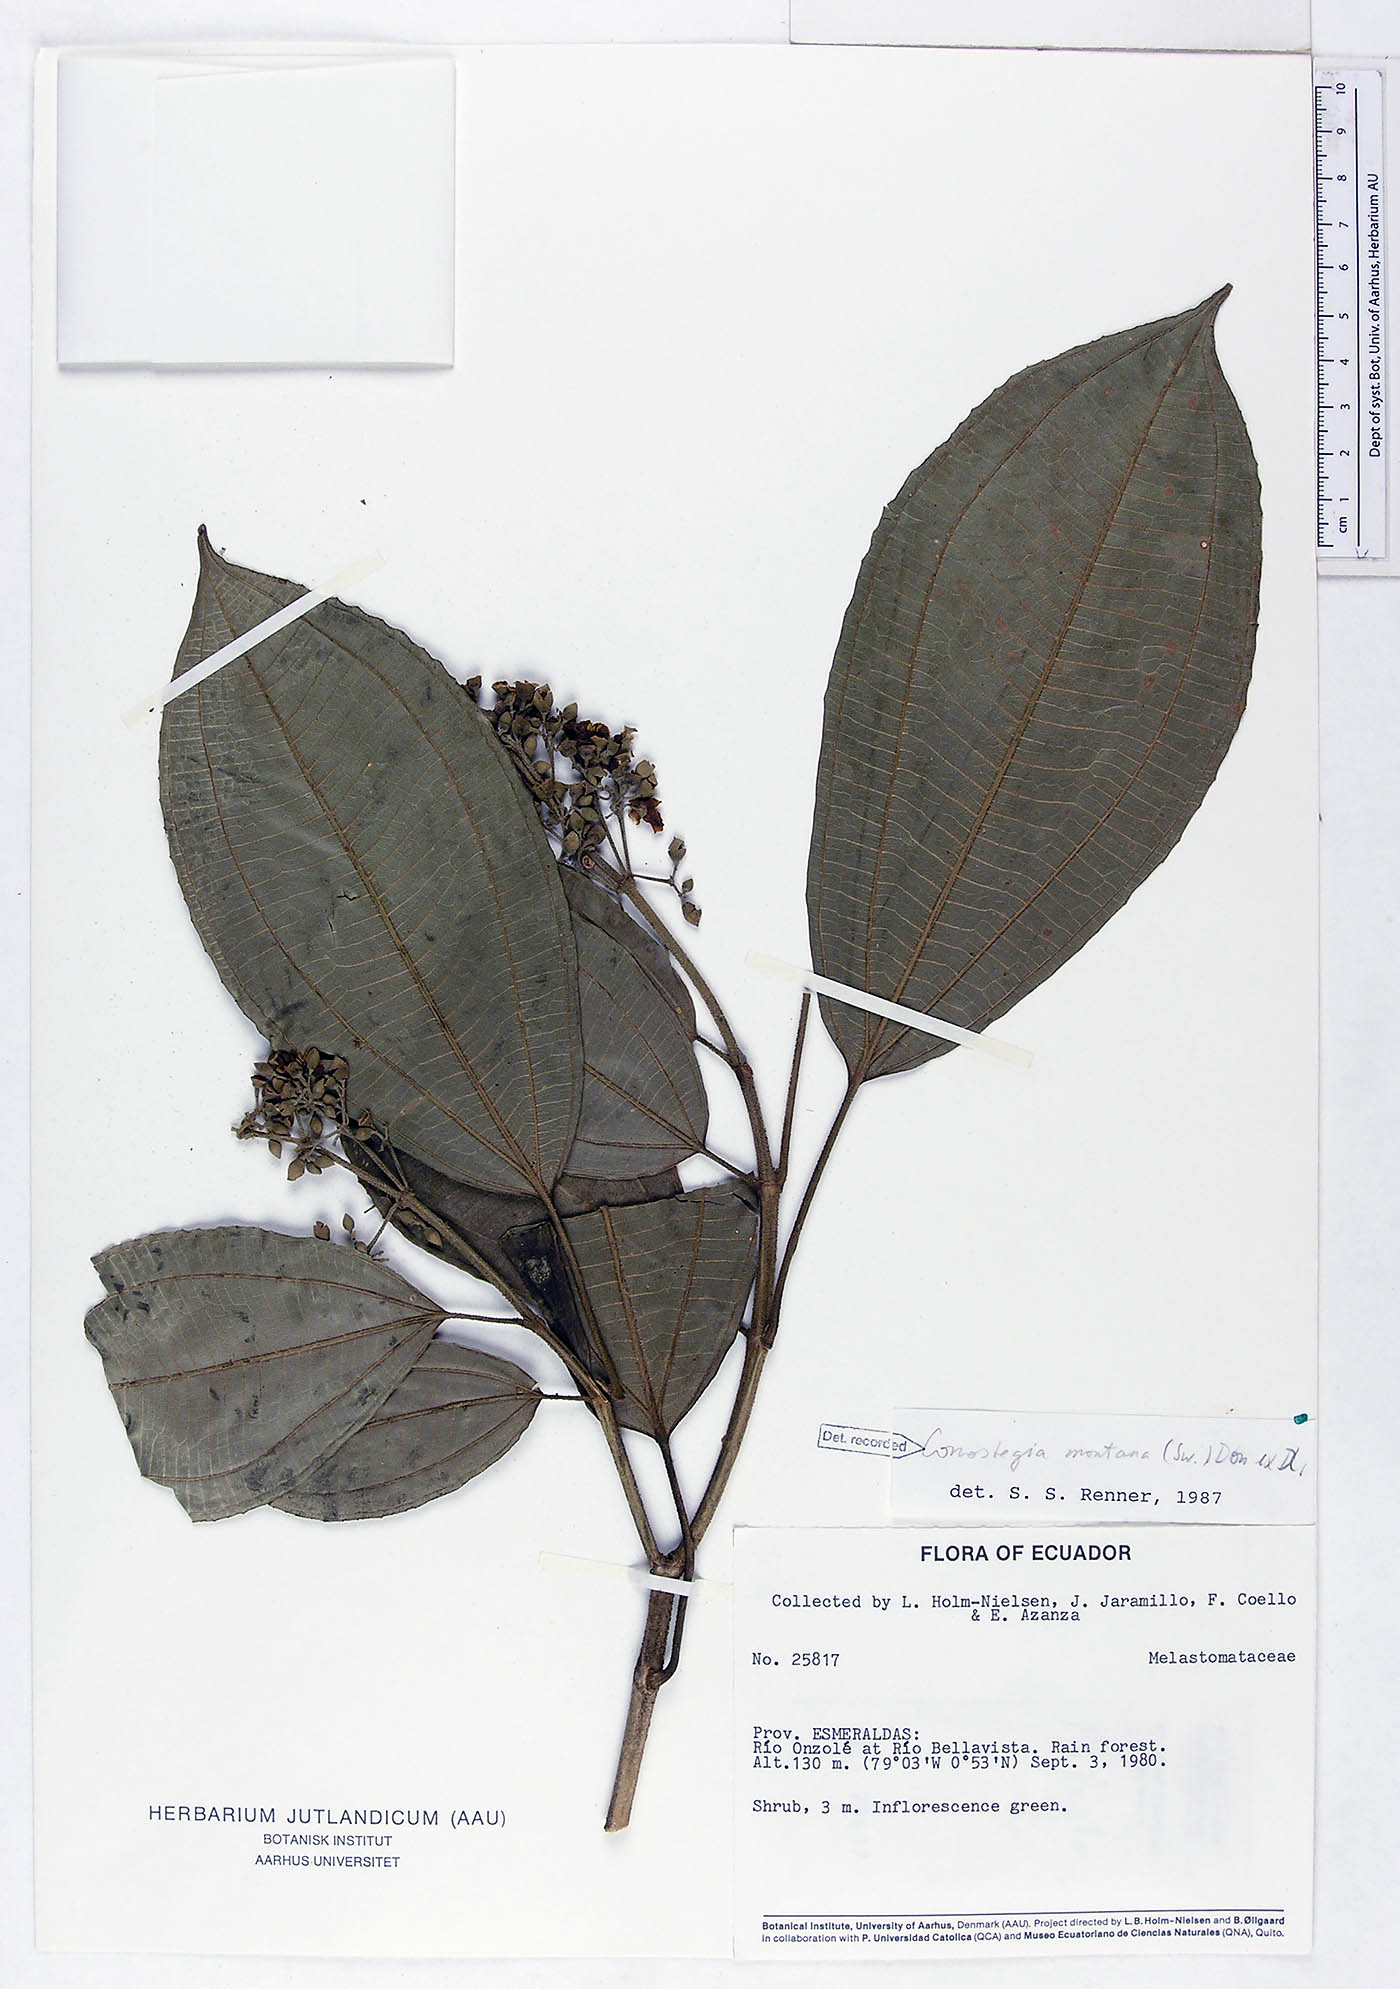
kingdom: Plantae
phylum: Tracheophyta
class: Magnoliopsida
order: Myrtales
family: Melastomataceae
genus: Miconia
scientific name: Miconia cooperi
